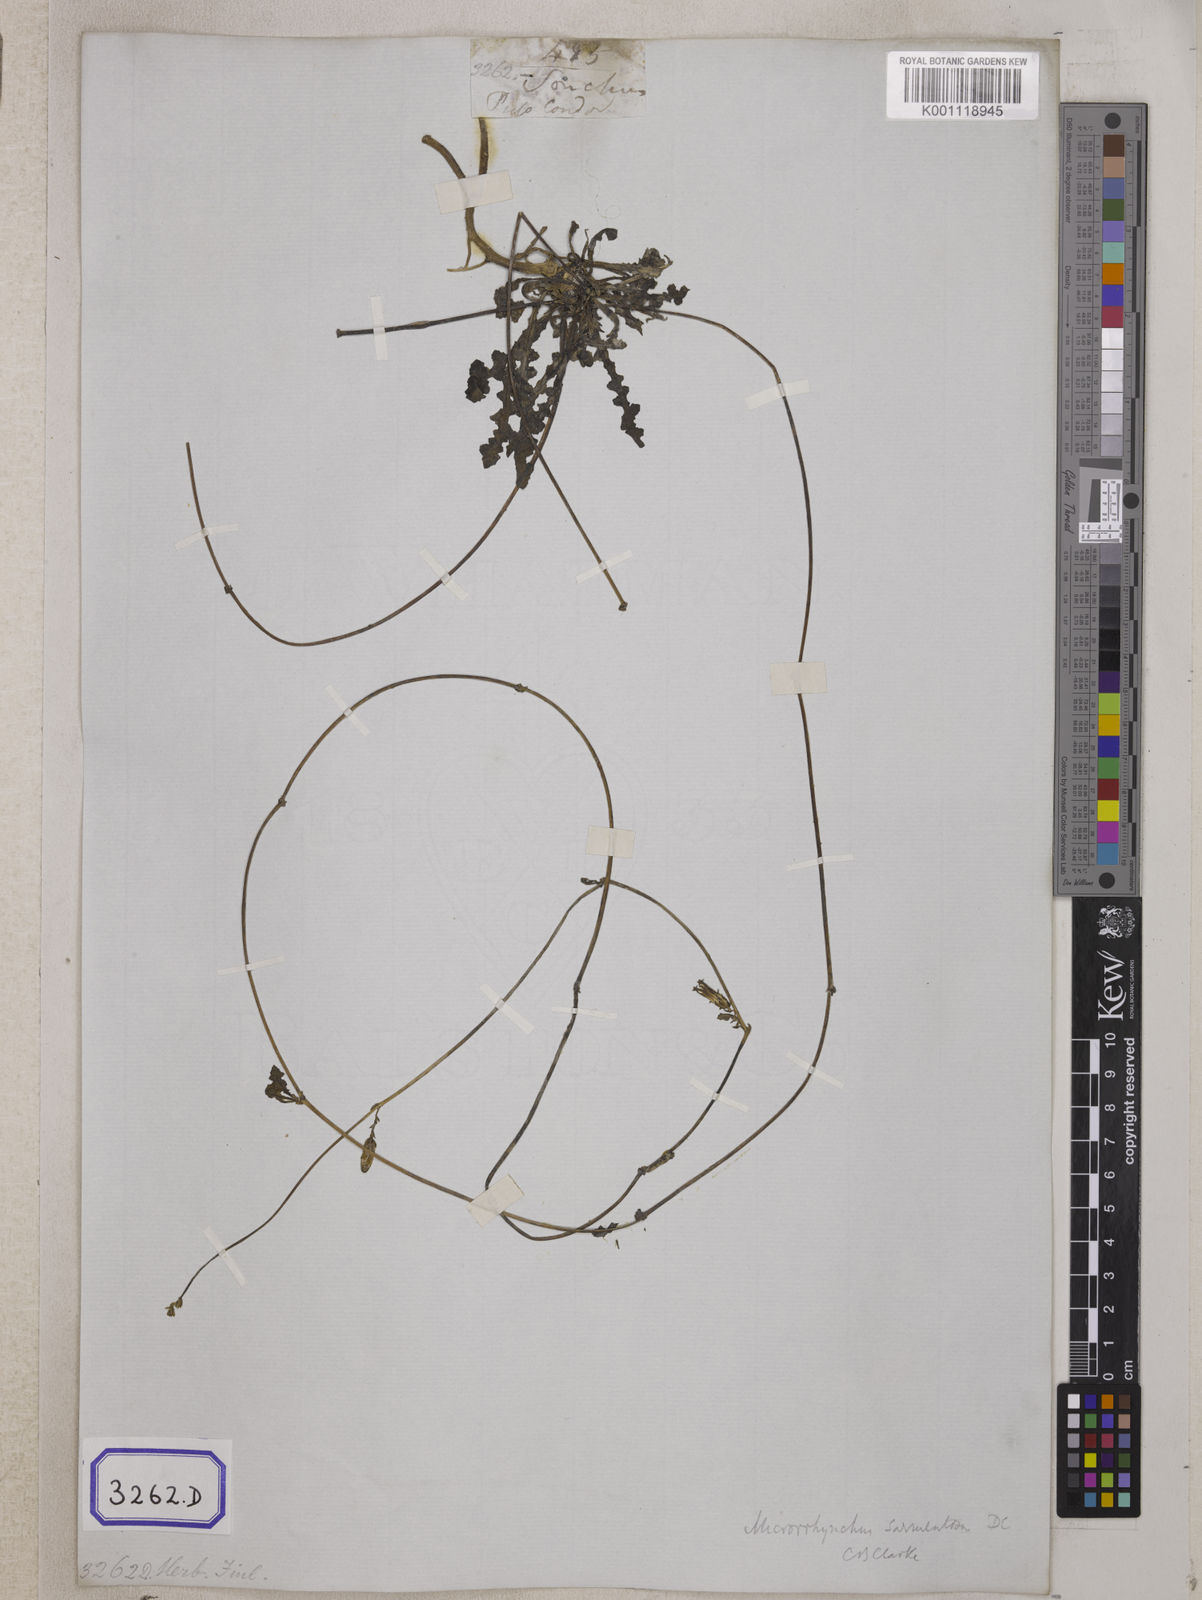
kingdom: Plantae
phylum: Tracheophyta
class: Magnoliopsida
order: Asterales
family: Asteraceae
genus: Emilia
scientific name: Emilia sonchifolia
